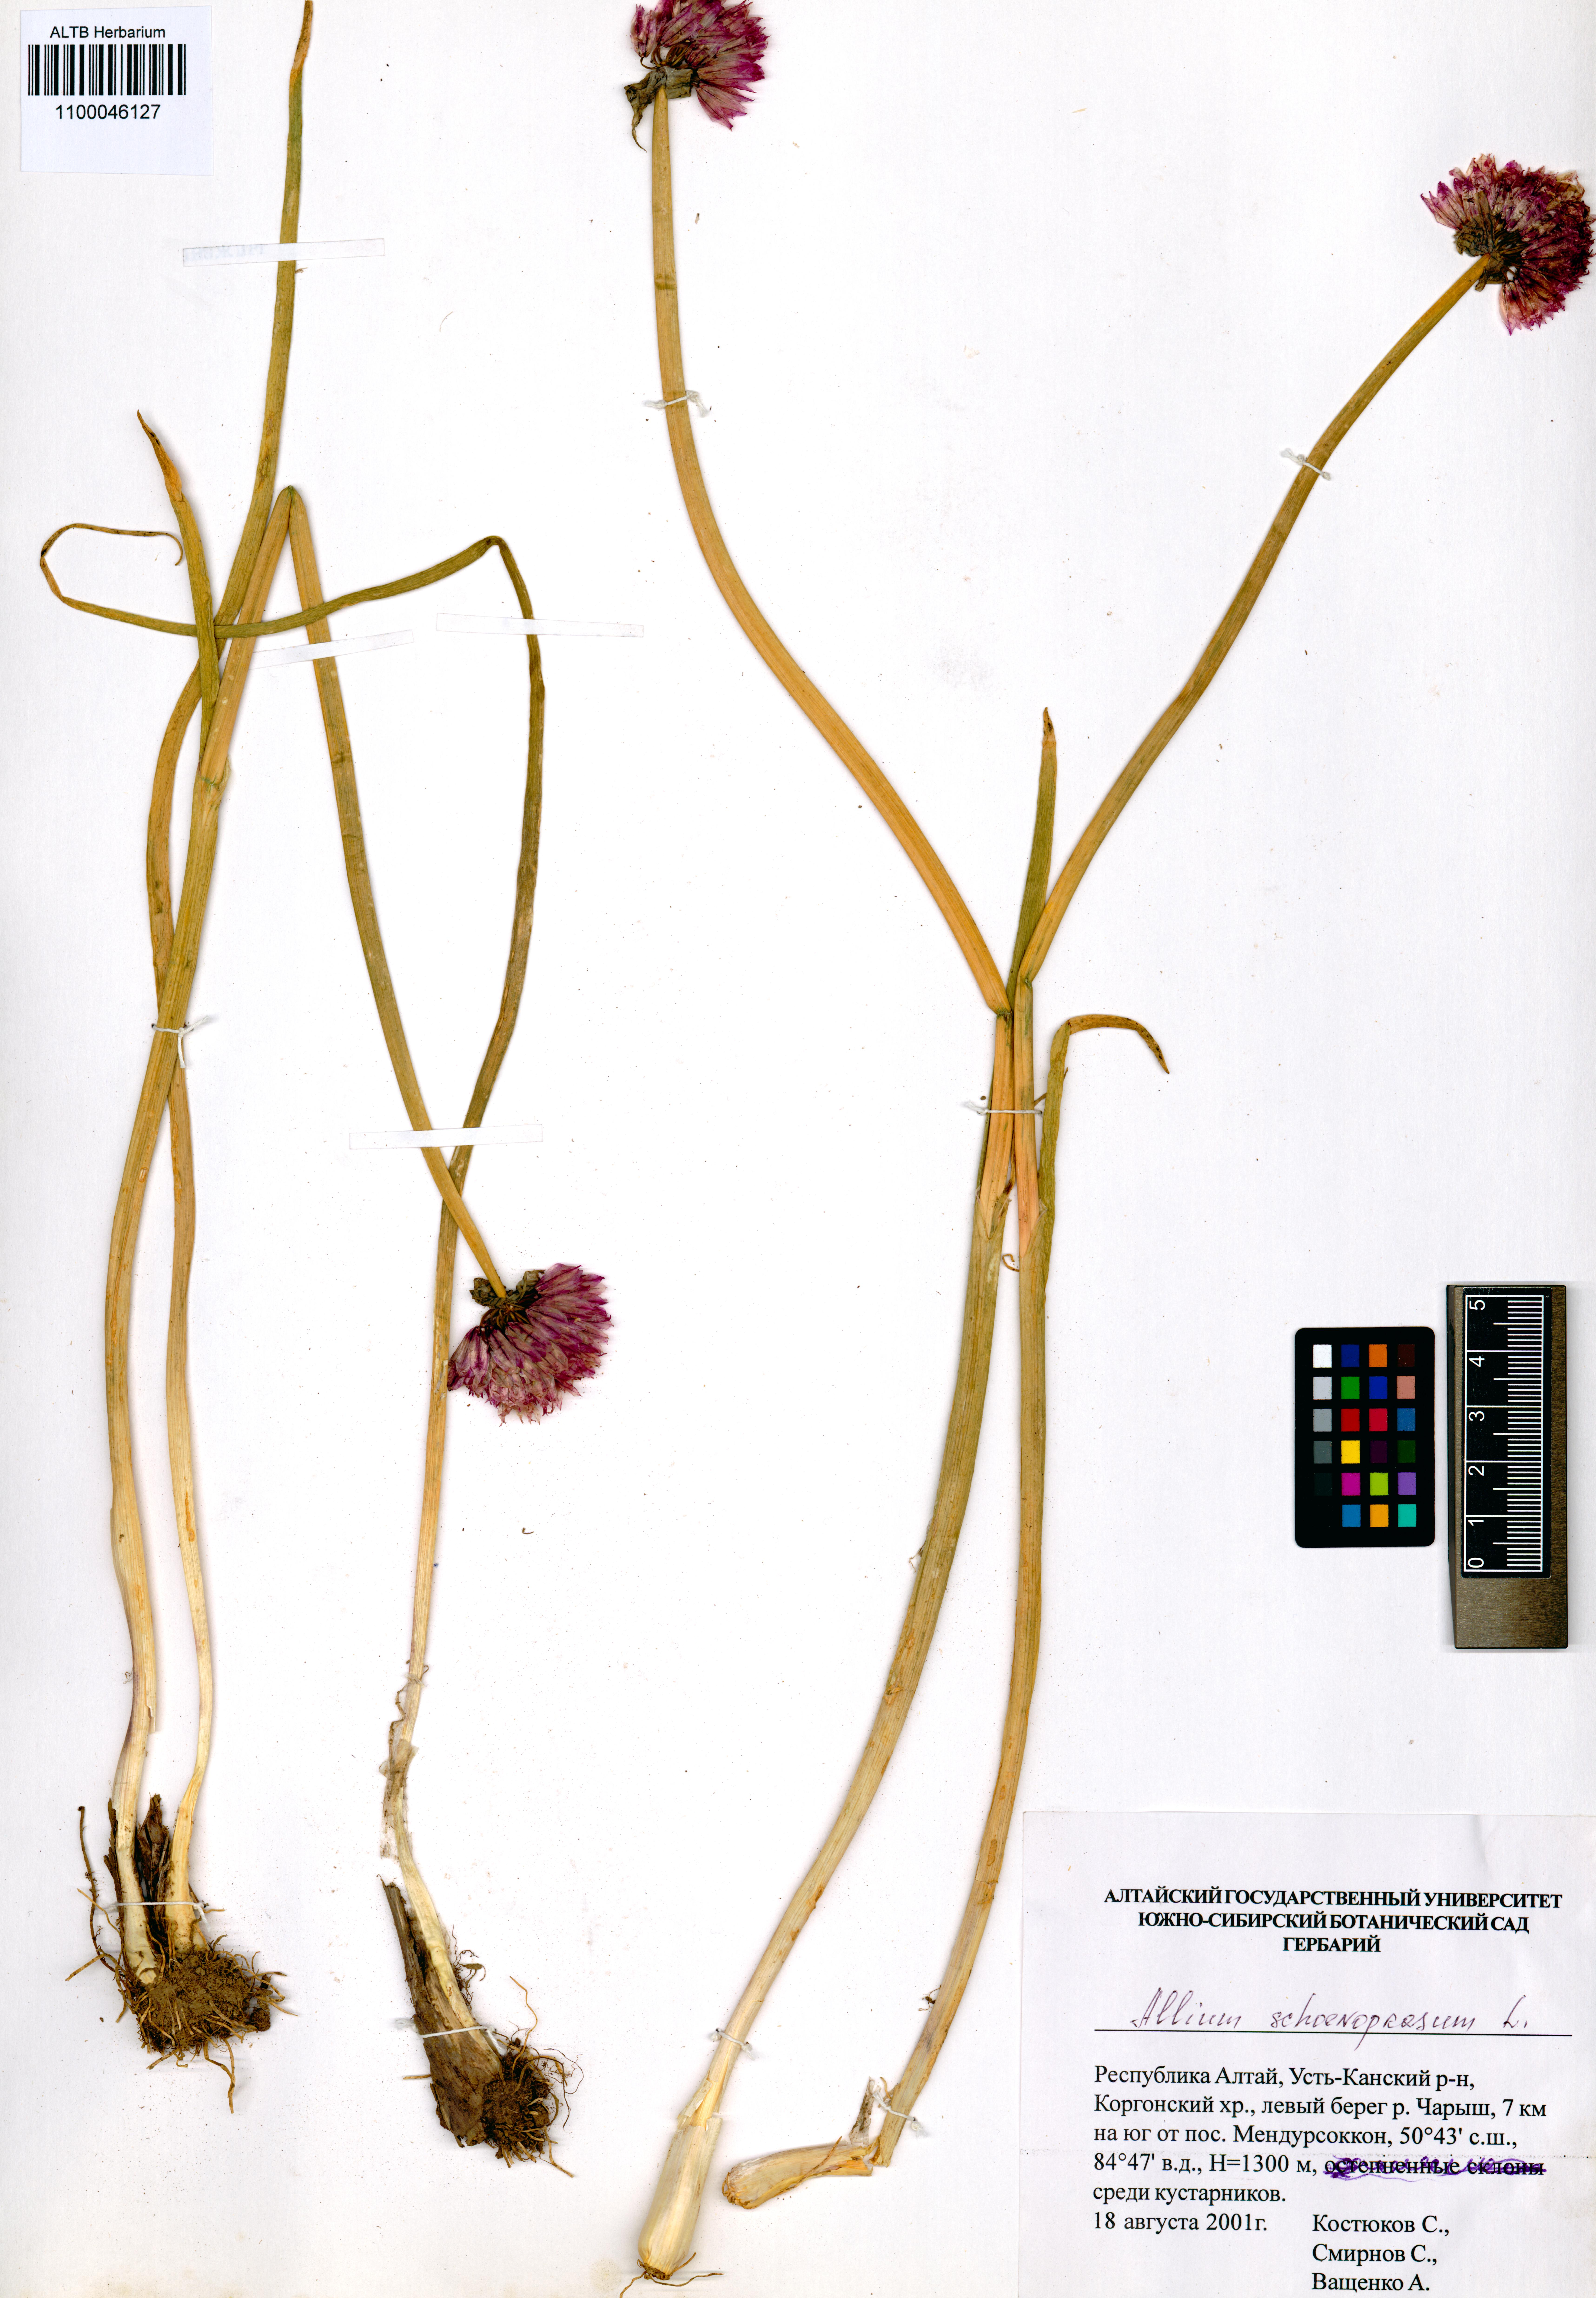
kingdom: Plantae
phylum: Tracheophyta
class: Liliopsida
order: Asparagales
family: Amaryllidaceae
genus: Allium
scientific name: Allium schoenoprasum
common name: Chives
